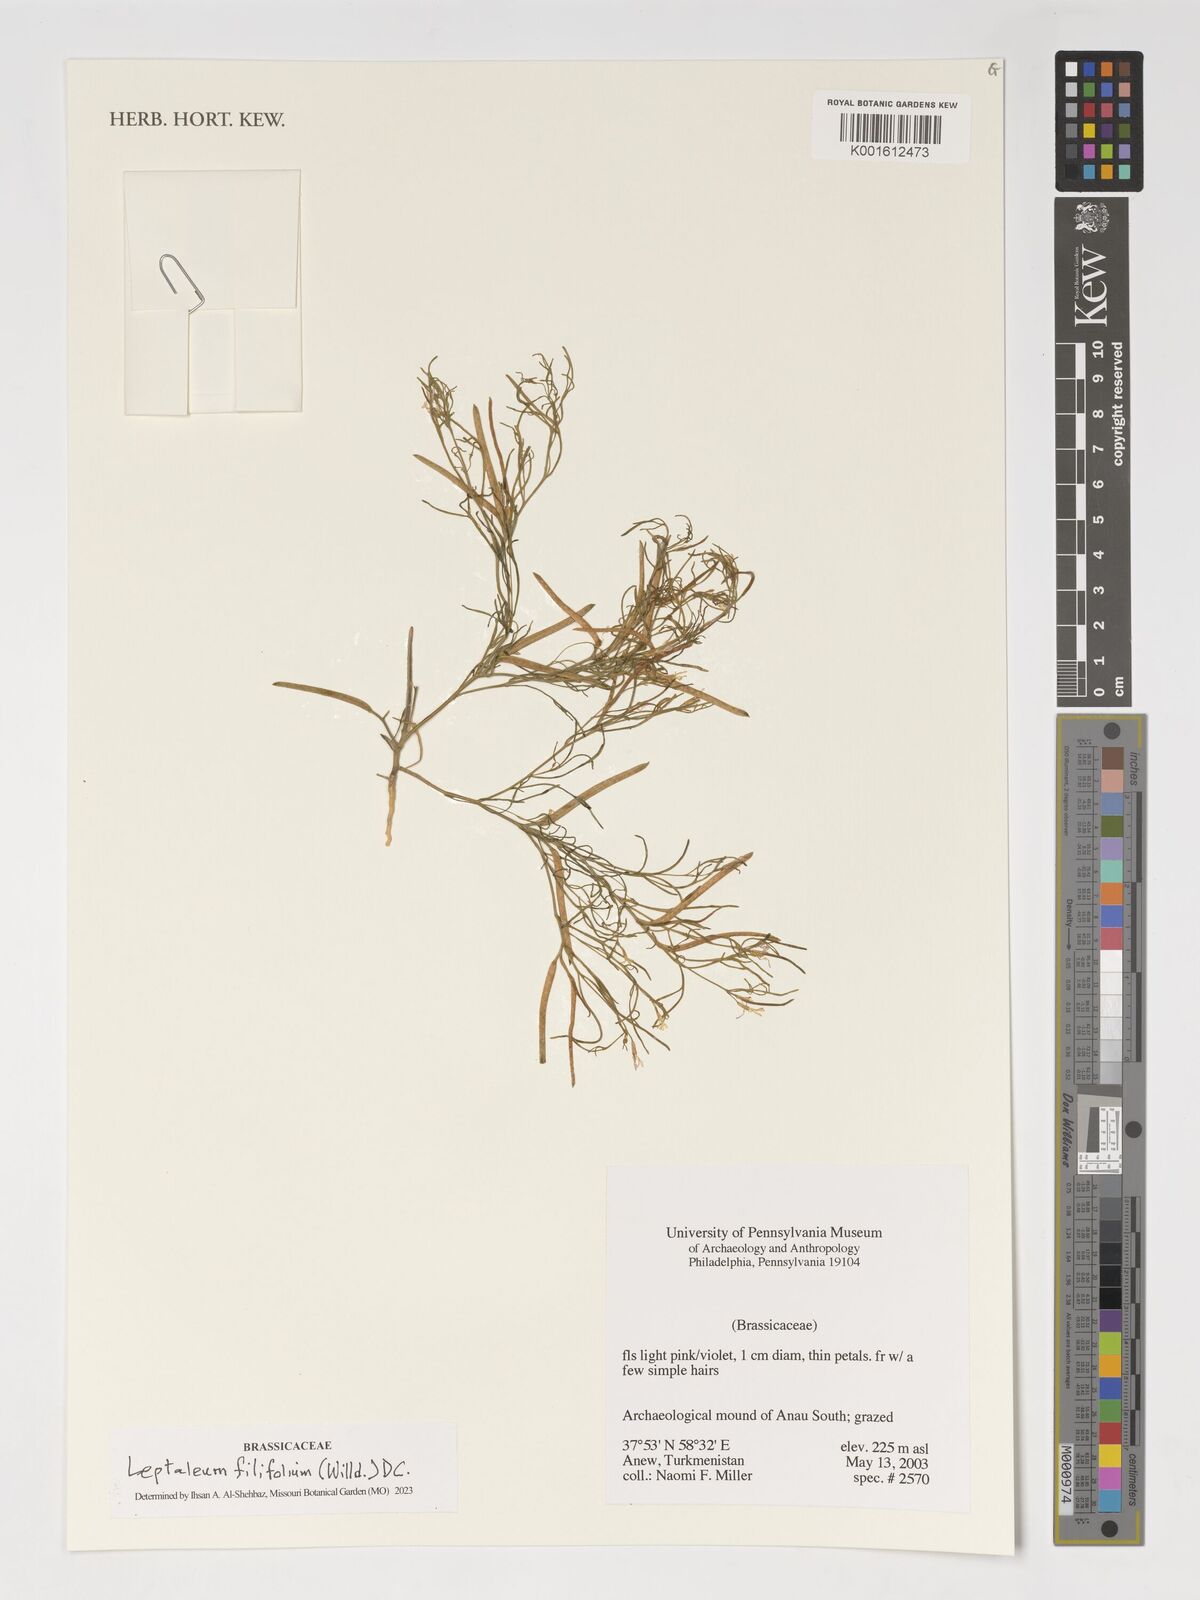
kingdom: Plantae
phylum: Tracheophyta
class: Magnoliopsida
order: Brassicales
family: Brassicaceae
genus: Leptaleum
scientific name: Leptaleum filifolium
